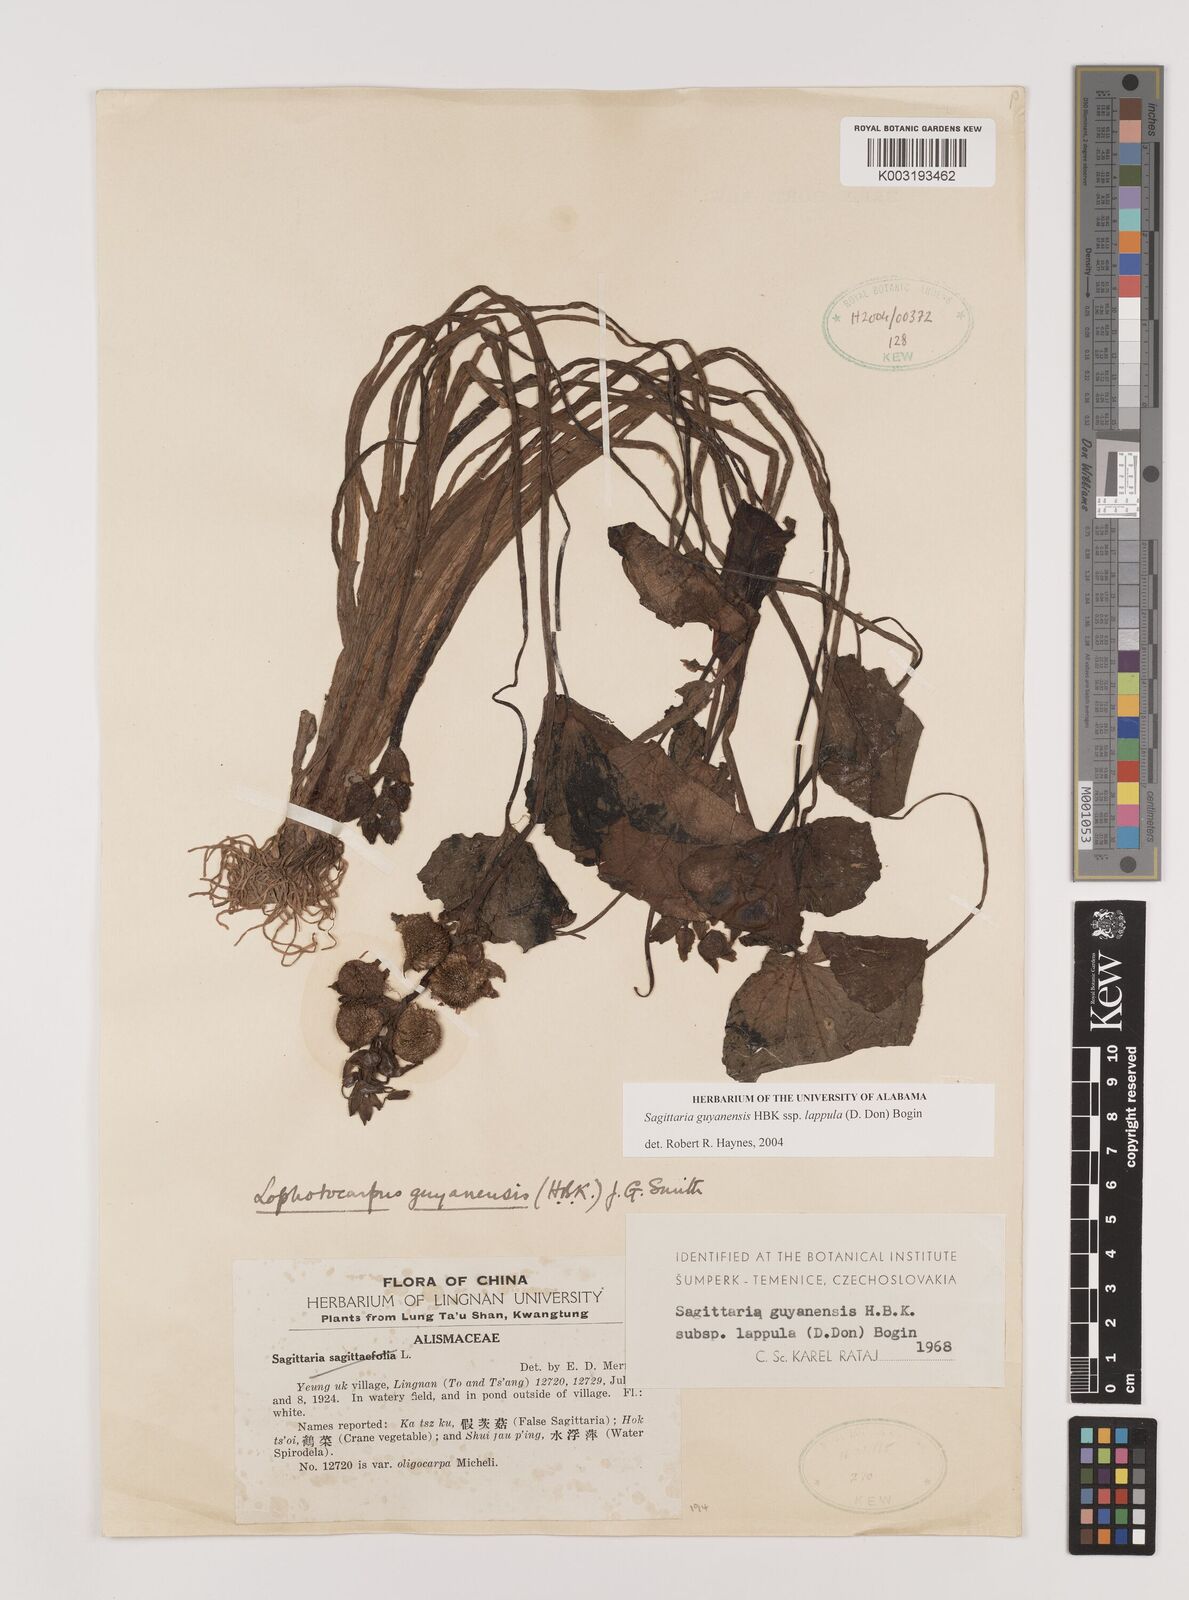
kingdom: Plantae
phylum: Tracheophyta
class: Liliopsida
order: Alismatales
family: Alismataceae
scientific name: Alismataceae
